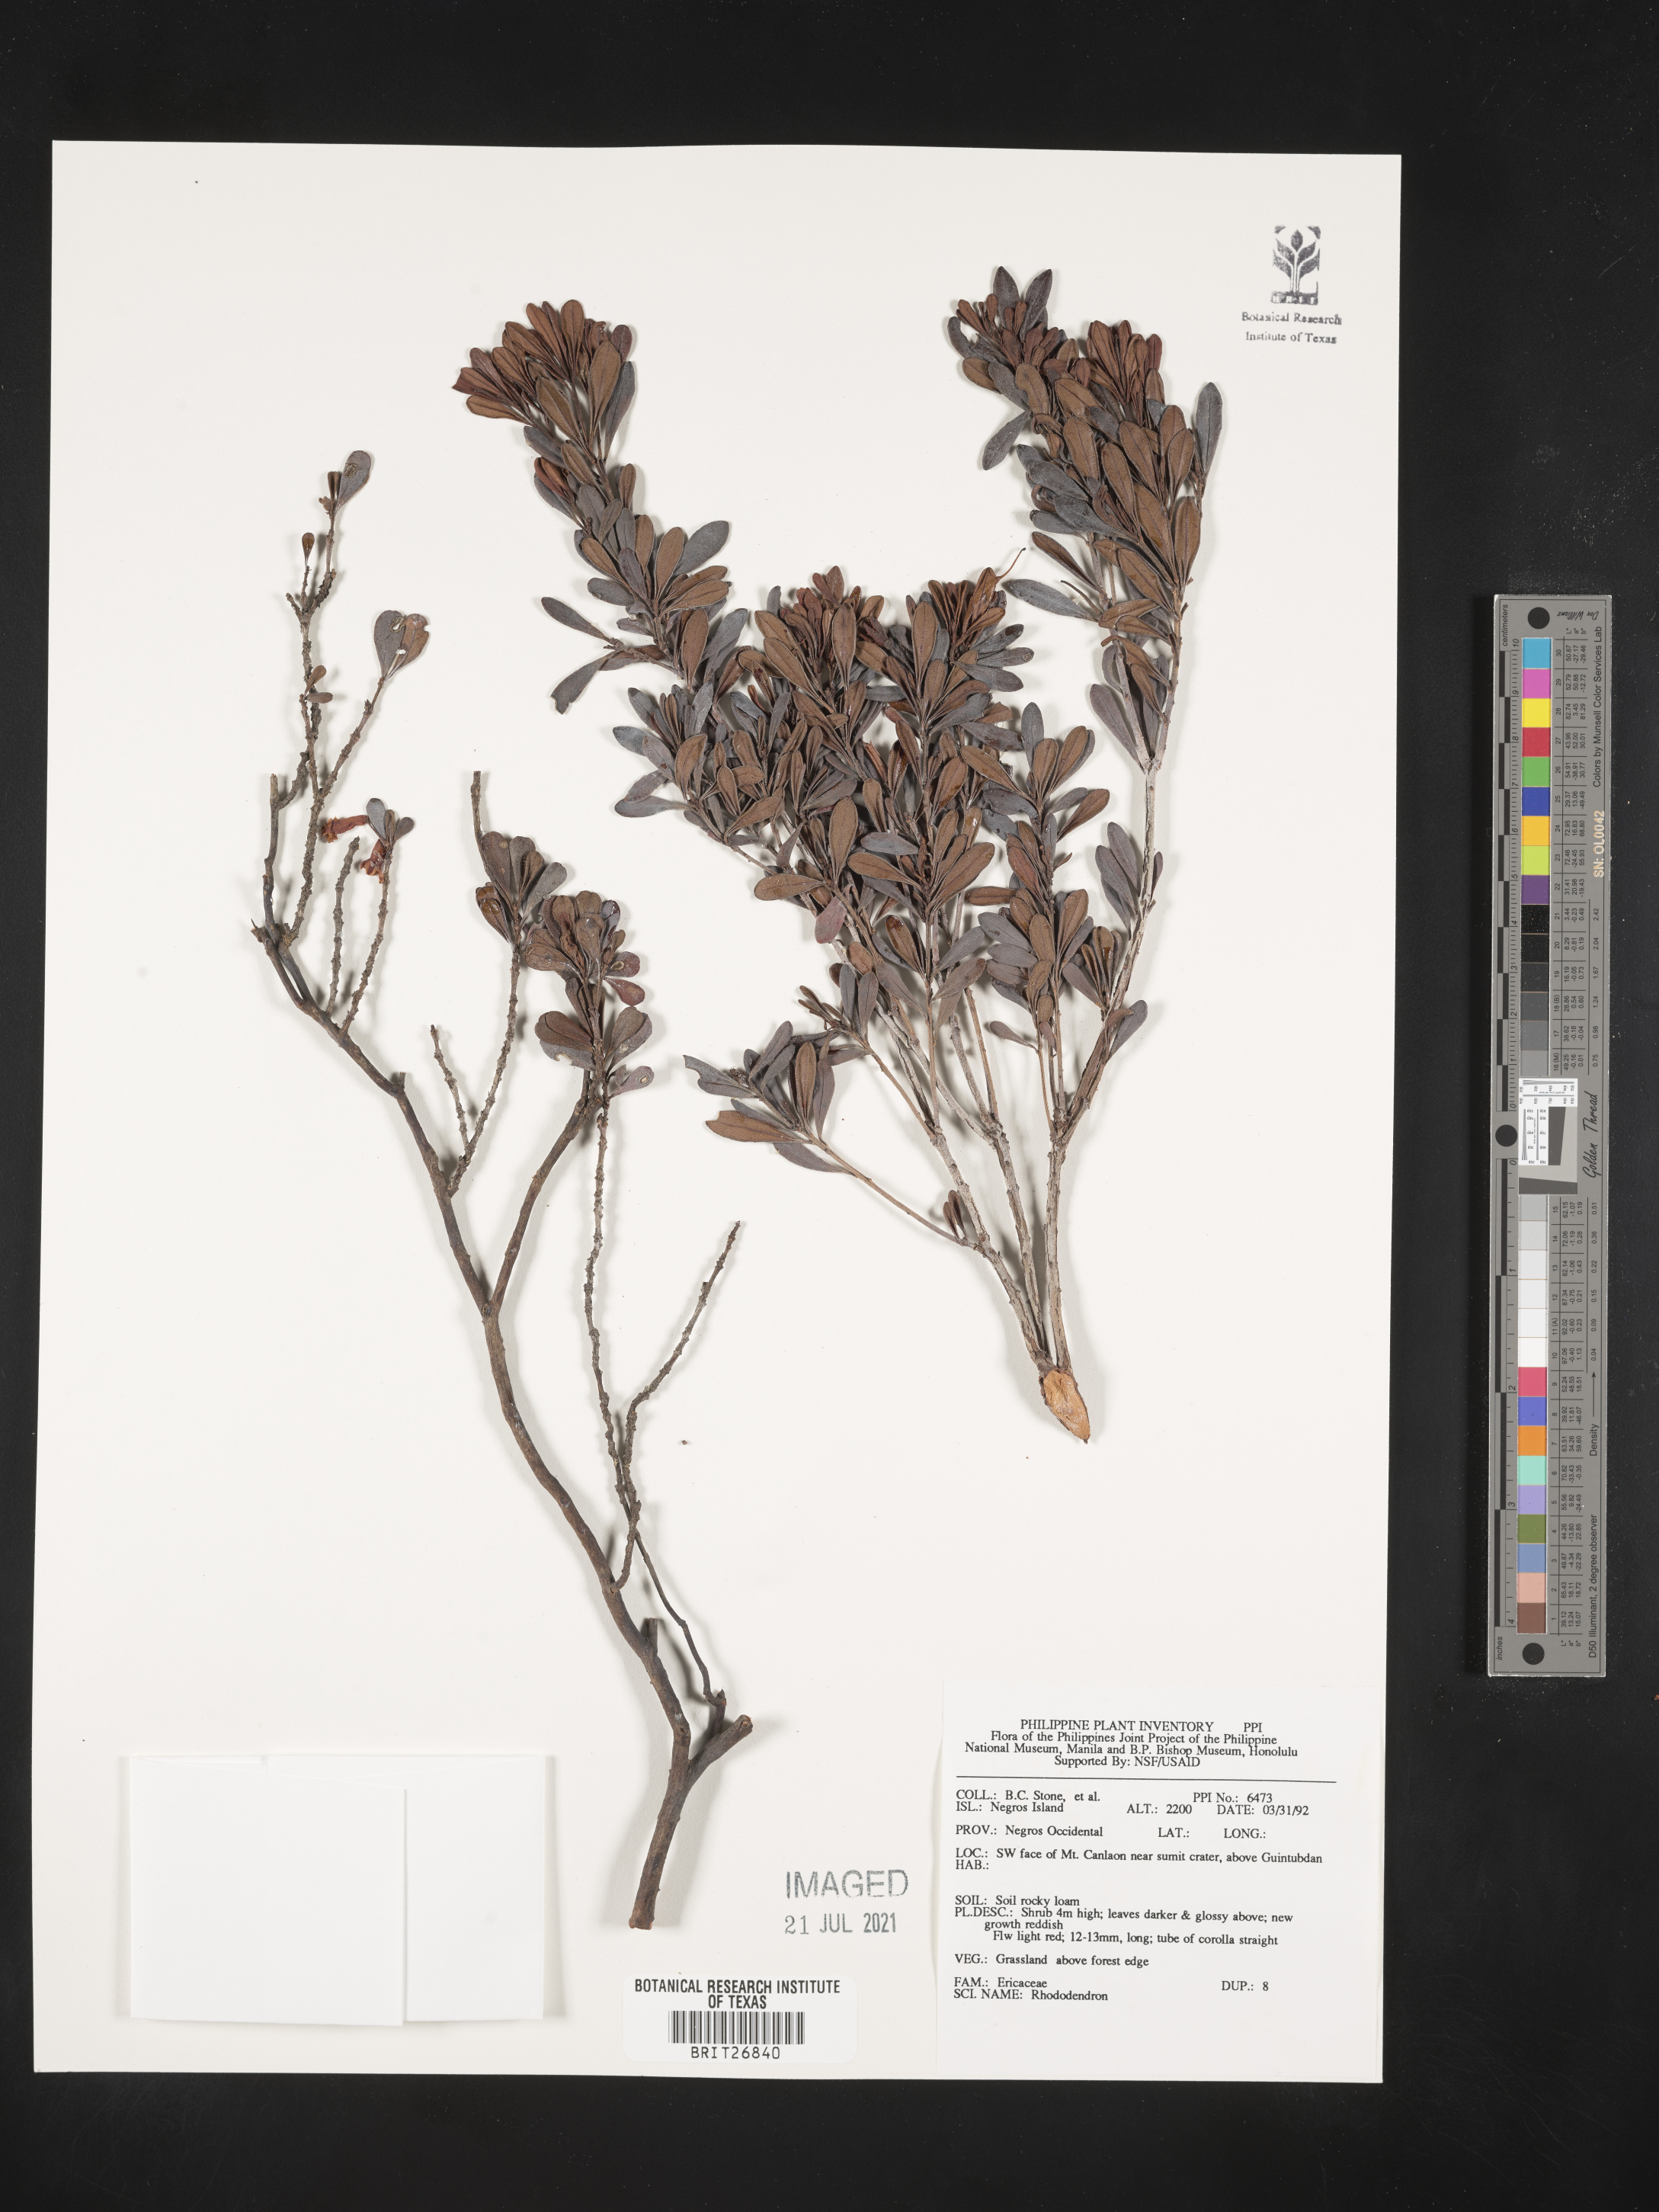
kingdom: Plantae
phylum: Tracheophyta
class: Magnoliopsida
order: Ericales
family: Ericaceae
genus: Rhododendron
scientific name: Rhododendron
